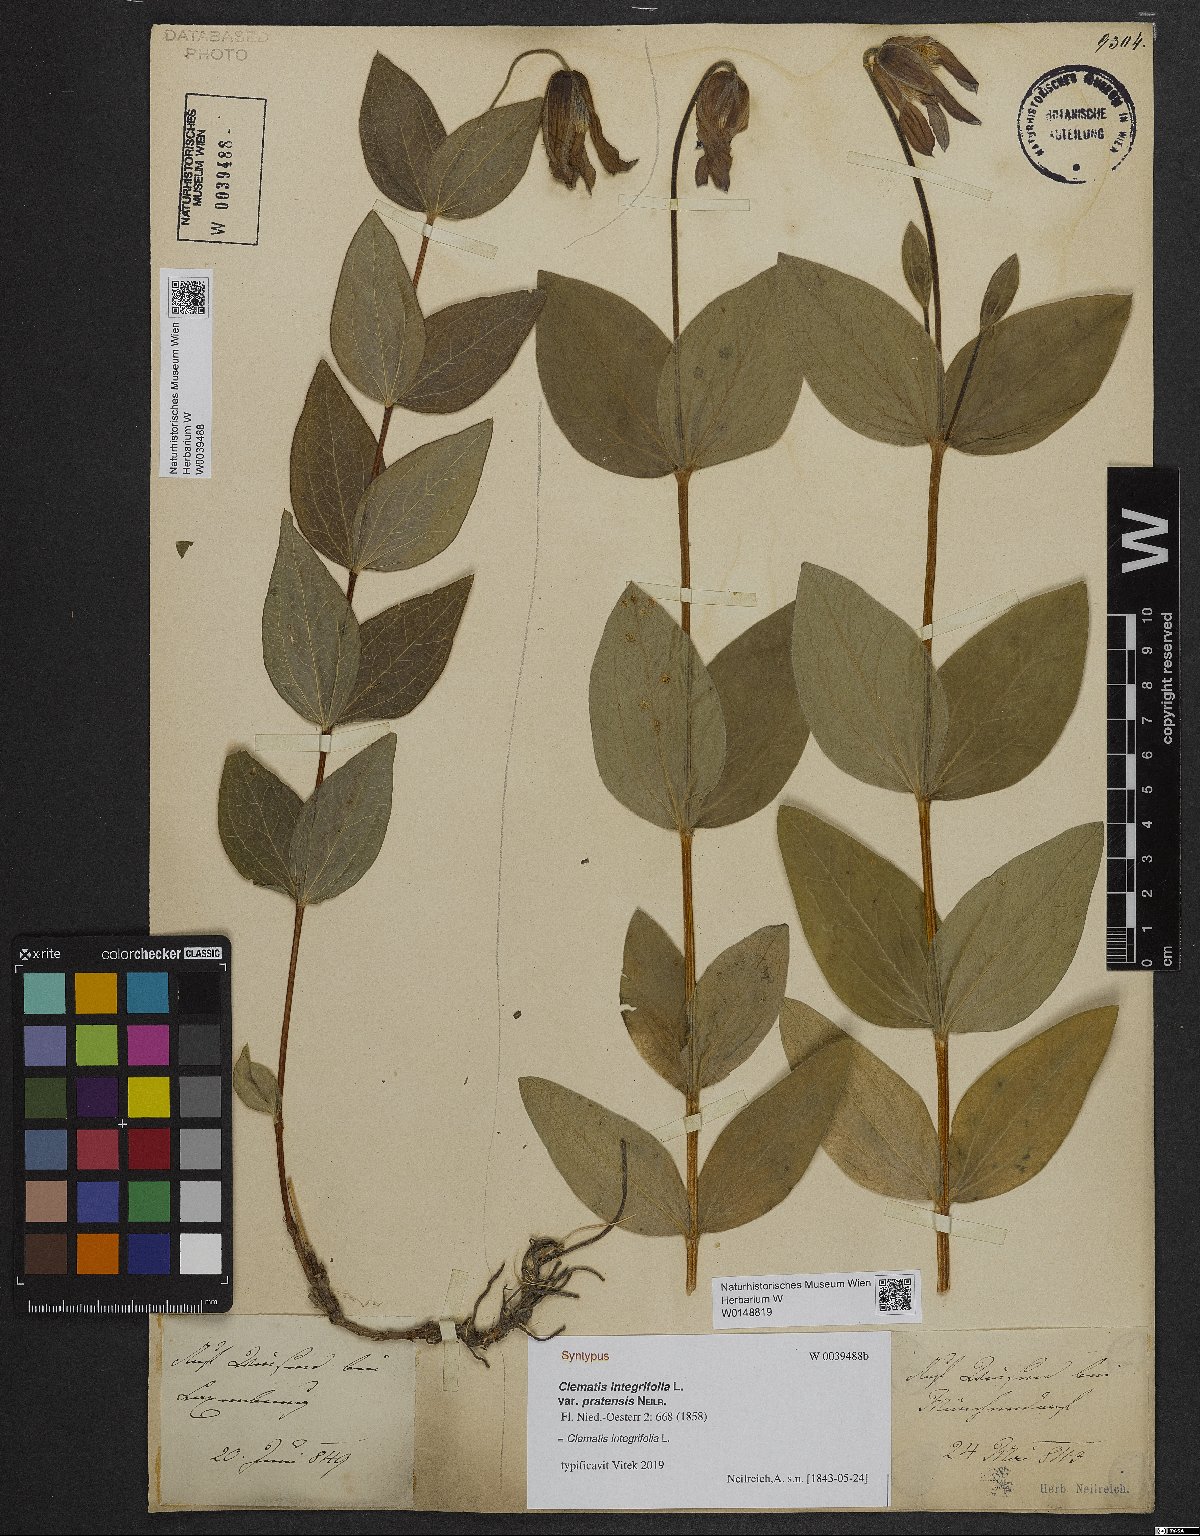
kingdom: Plantae
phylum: Tracheophyta
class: Magnoliopsida
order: Ranunculales
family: Ranunculaceae
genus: Clematis
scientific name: Clematis integrifolia
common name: Solitary clematis
